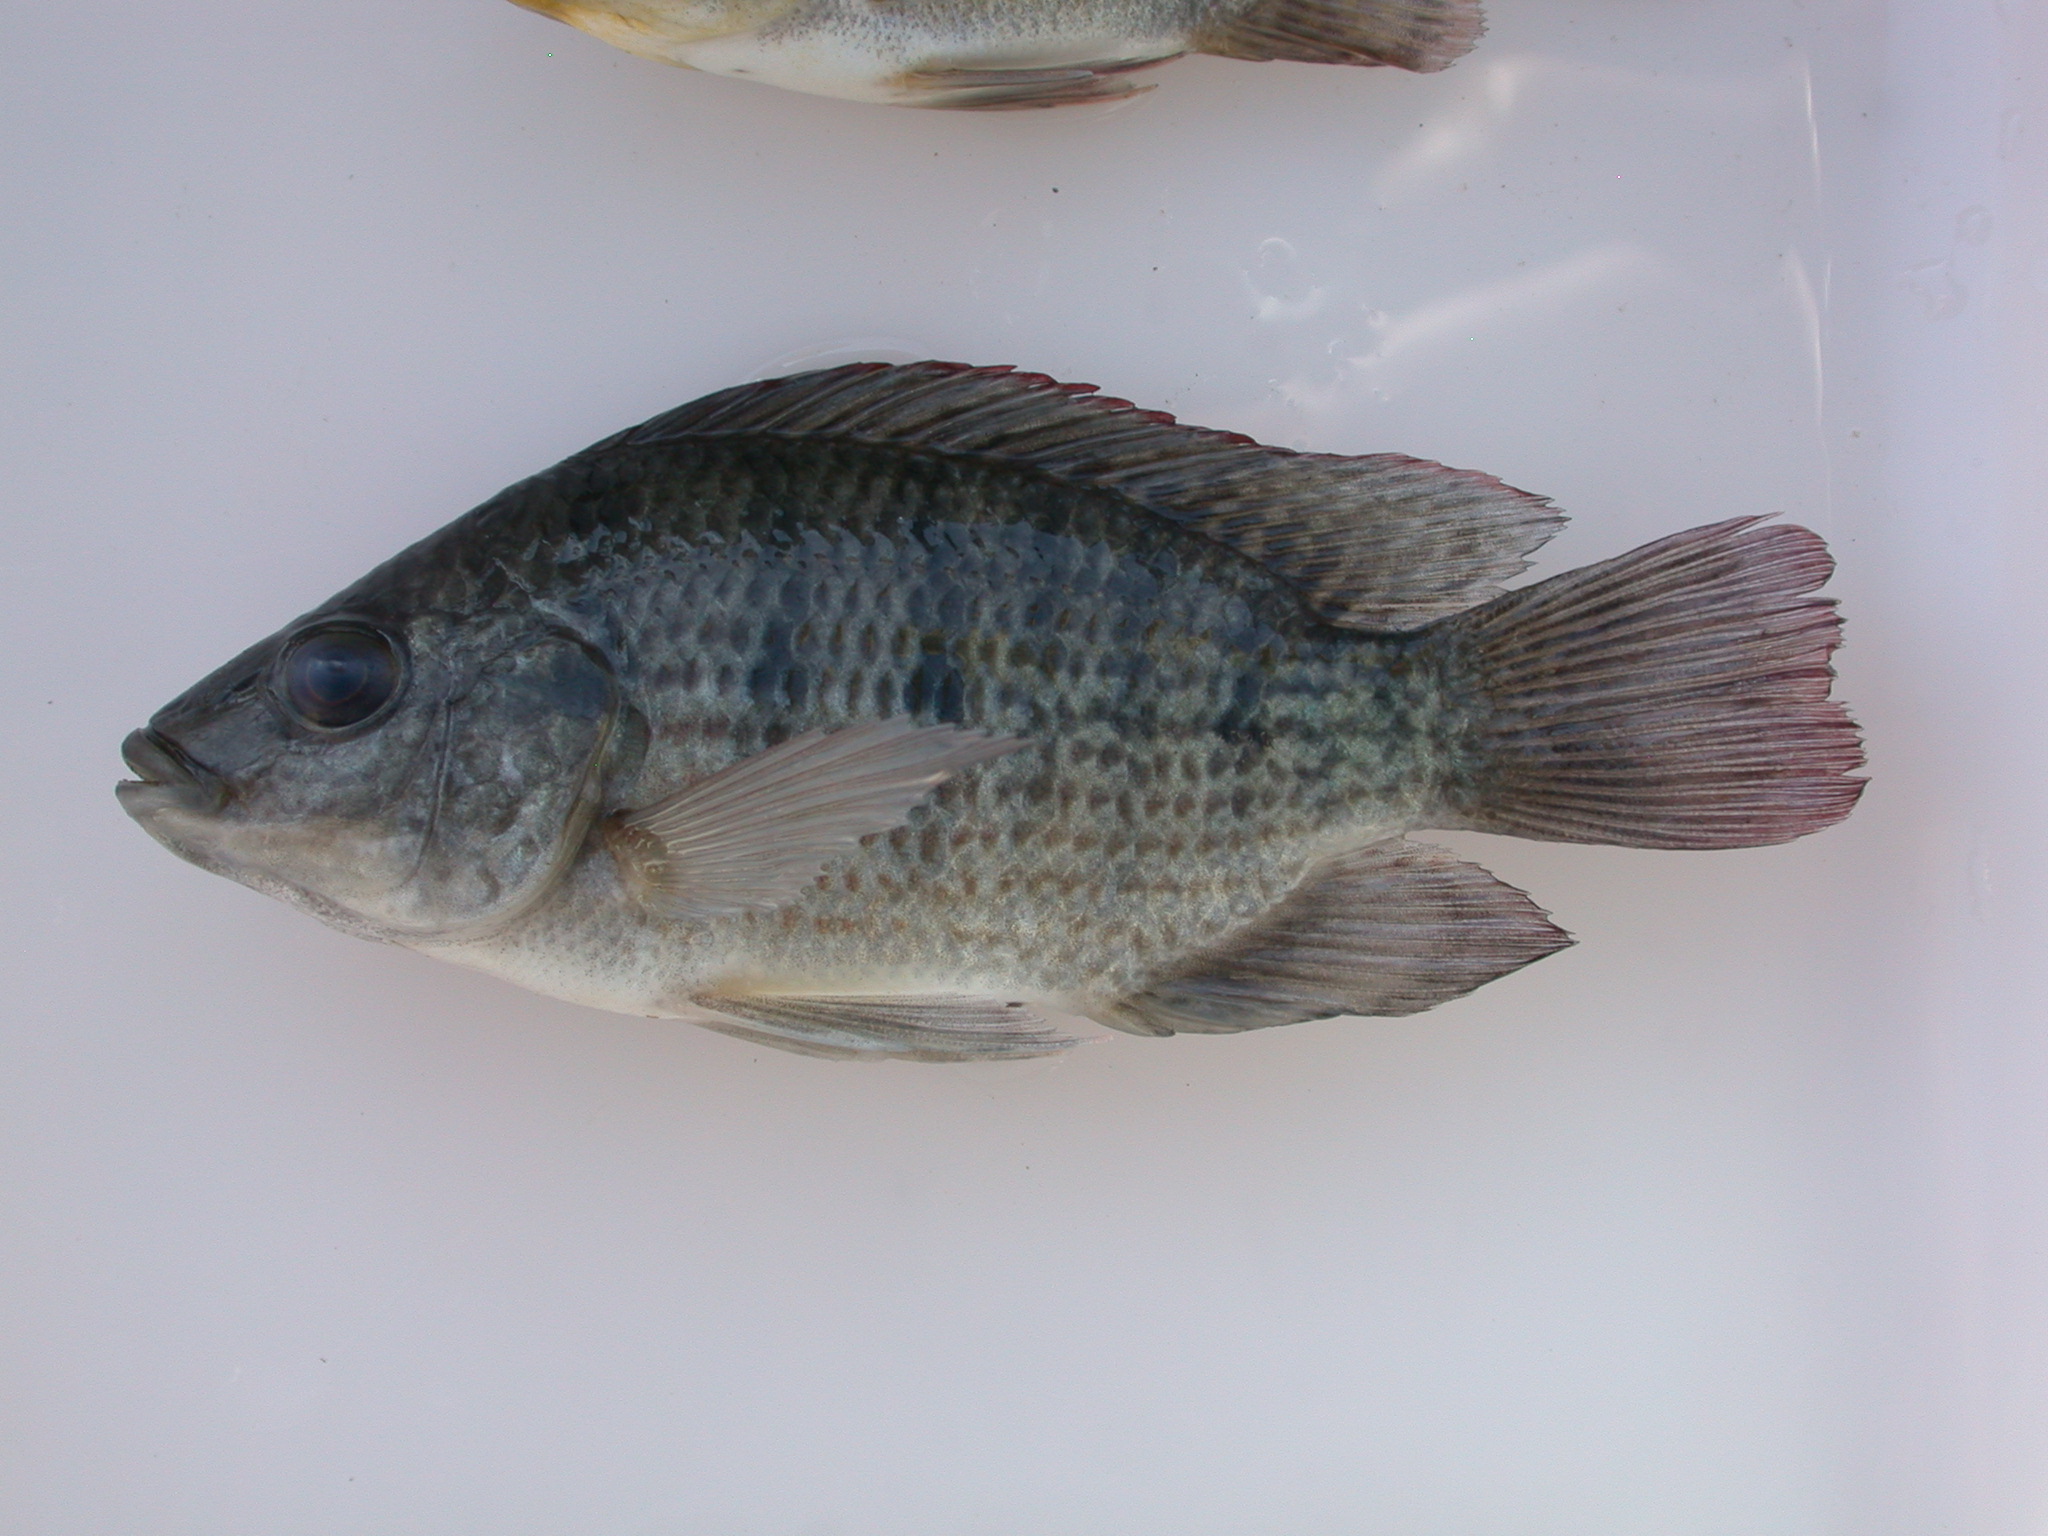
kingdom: Animalia
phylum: Chordata
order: Perciformes
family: Cichlidae
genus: Oreochromis
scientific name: Oreochromis mortimeri
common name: Kariba tilapia
